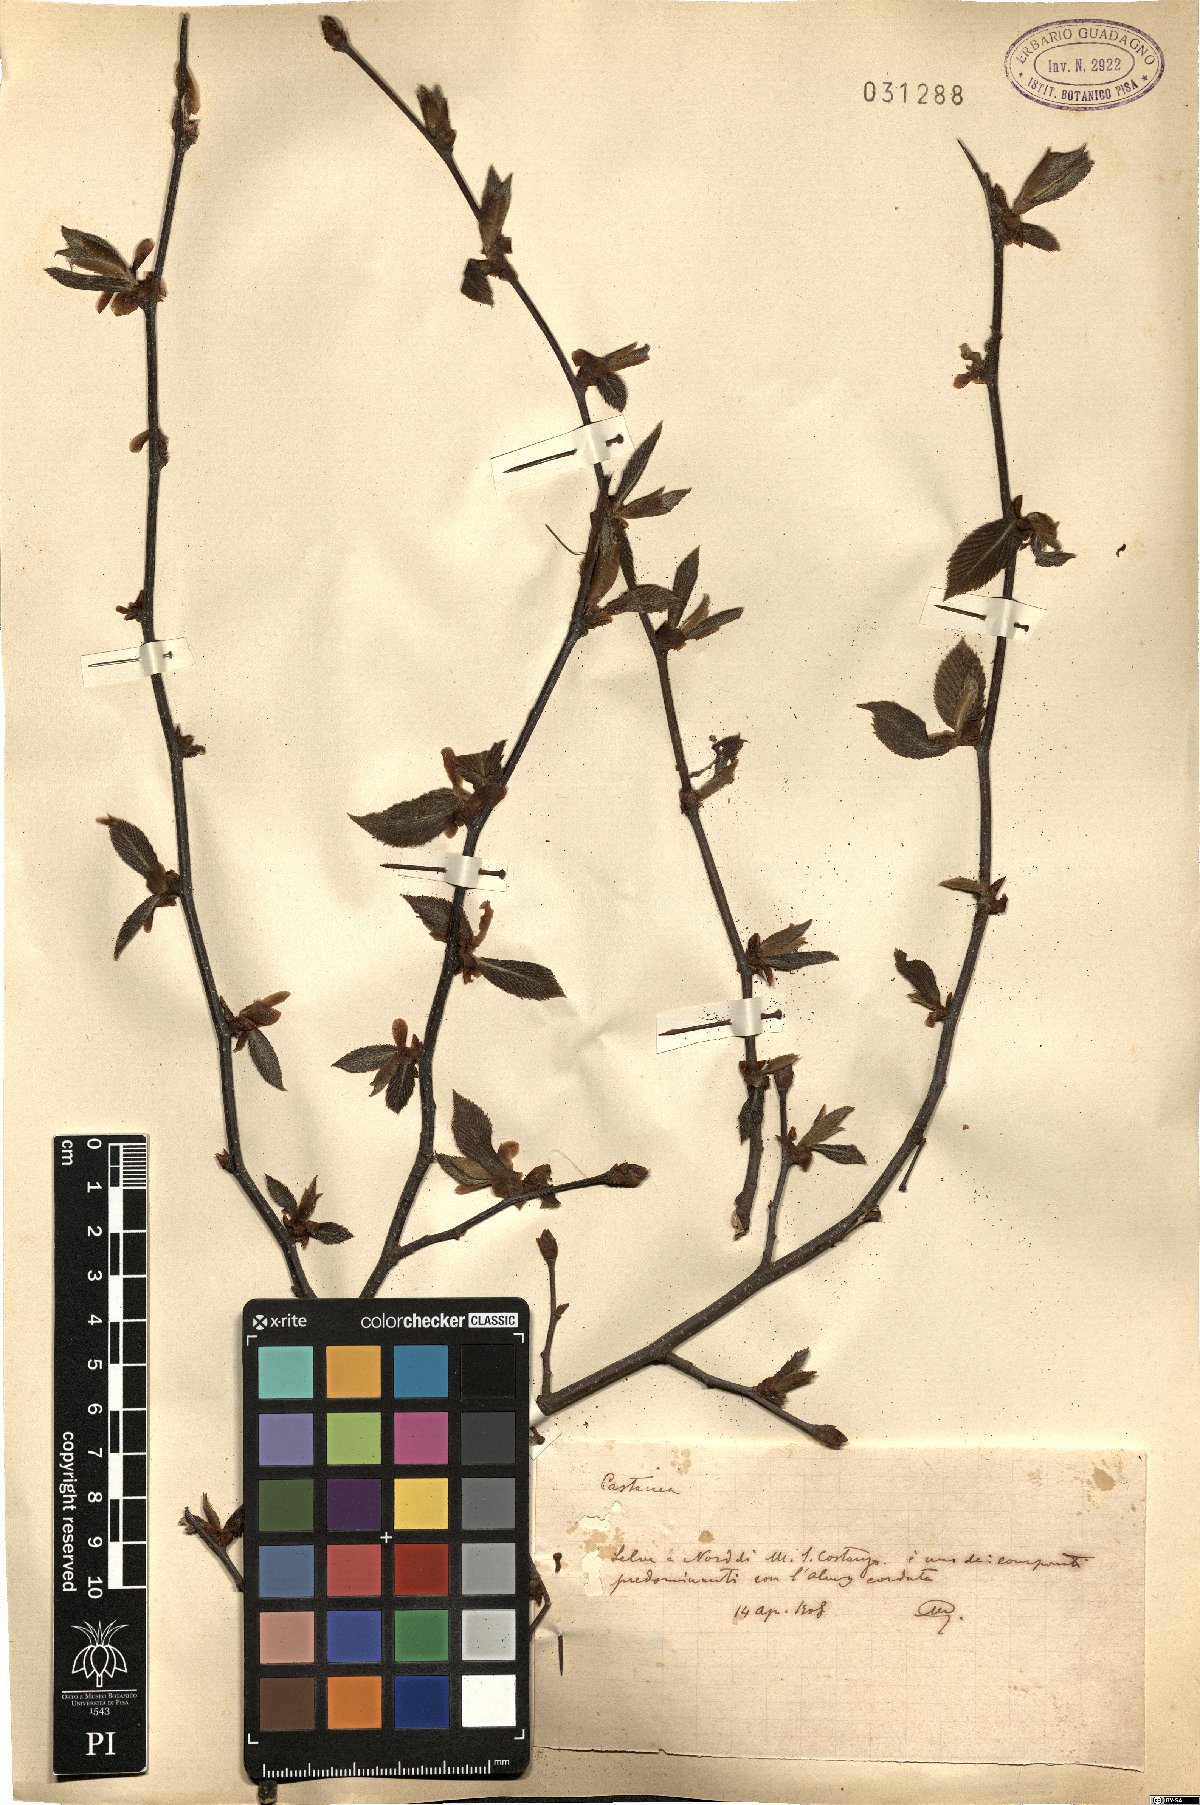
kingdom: Plantae
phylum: Tracheophyta
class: Magnoliopsida
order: Fagales
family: Fagaceae
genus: Castanea
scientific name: Castanea sativa
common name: Sweet chestnut
